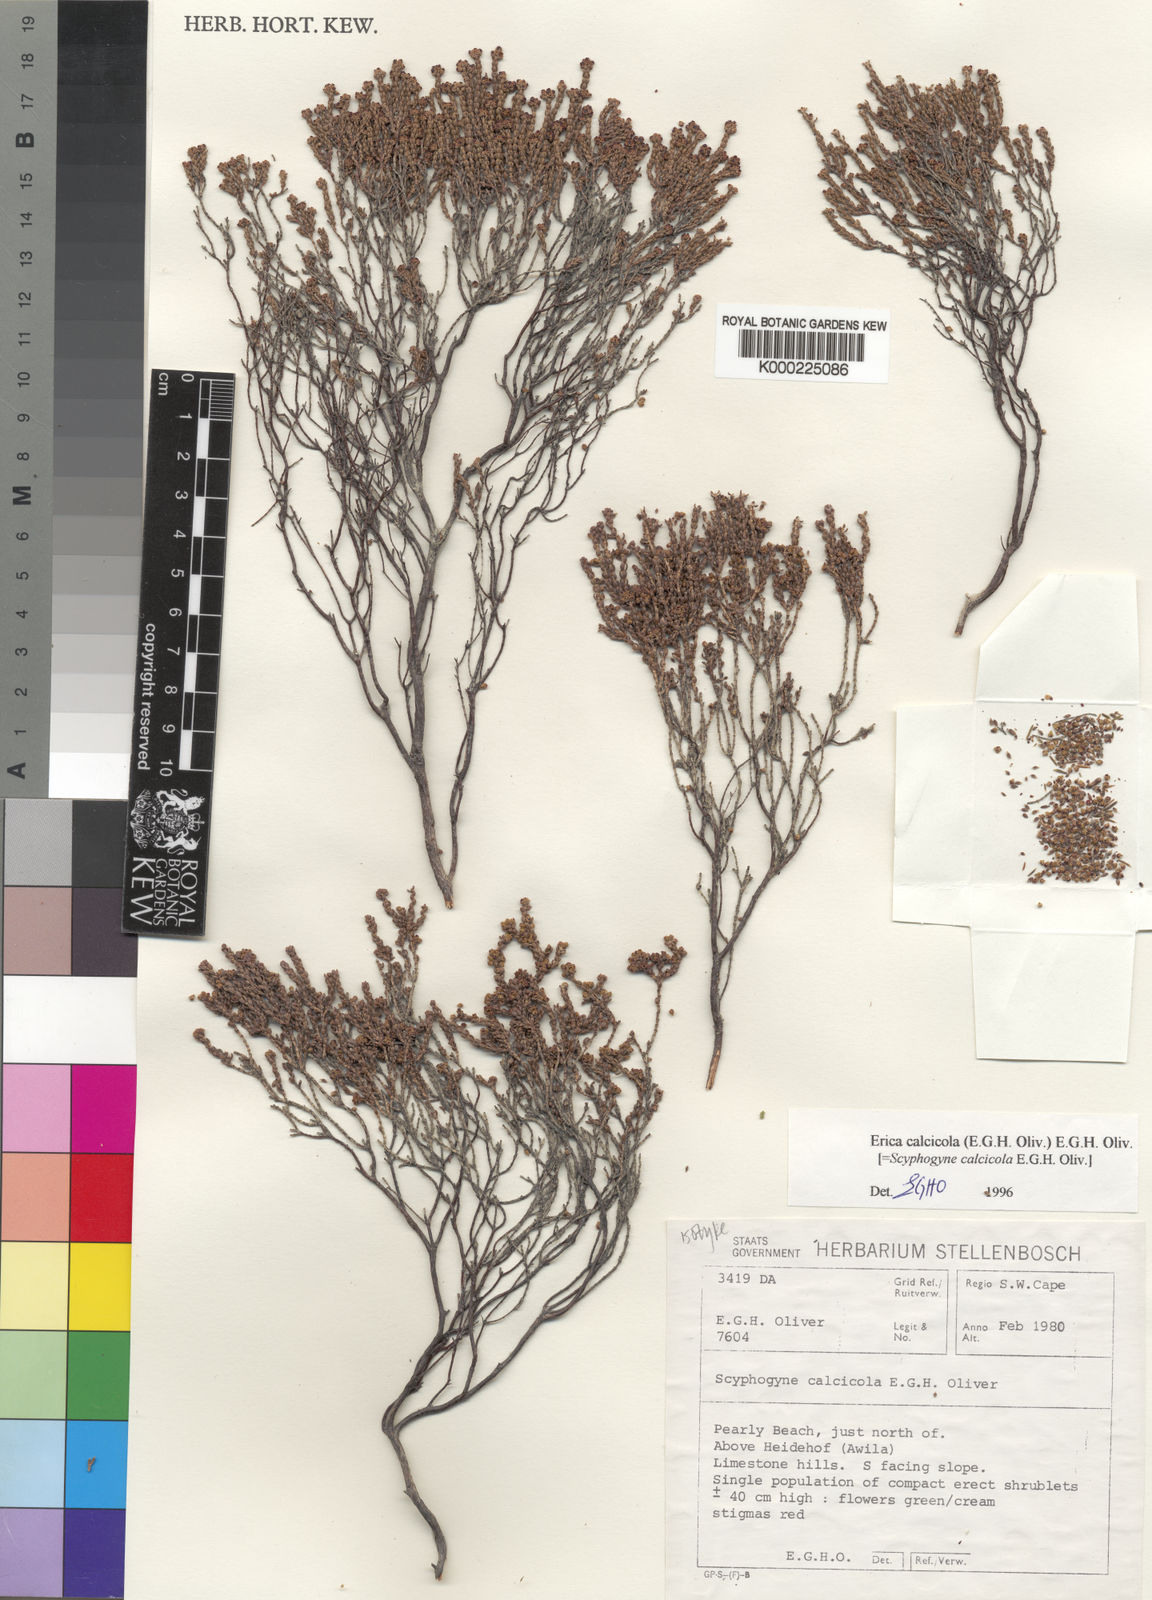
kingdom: Plantae
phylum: Tracheophyta
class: Magnoliopsida
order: Ericales
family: Ericaceae
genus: Erica
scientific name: Erica calcicola
